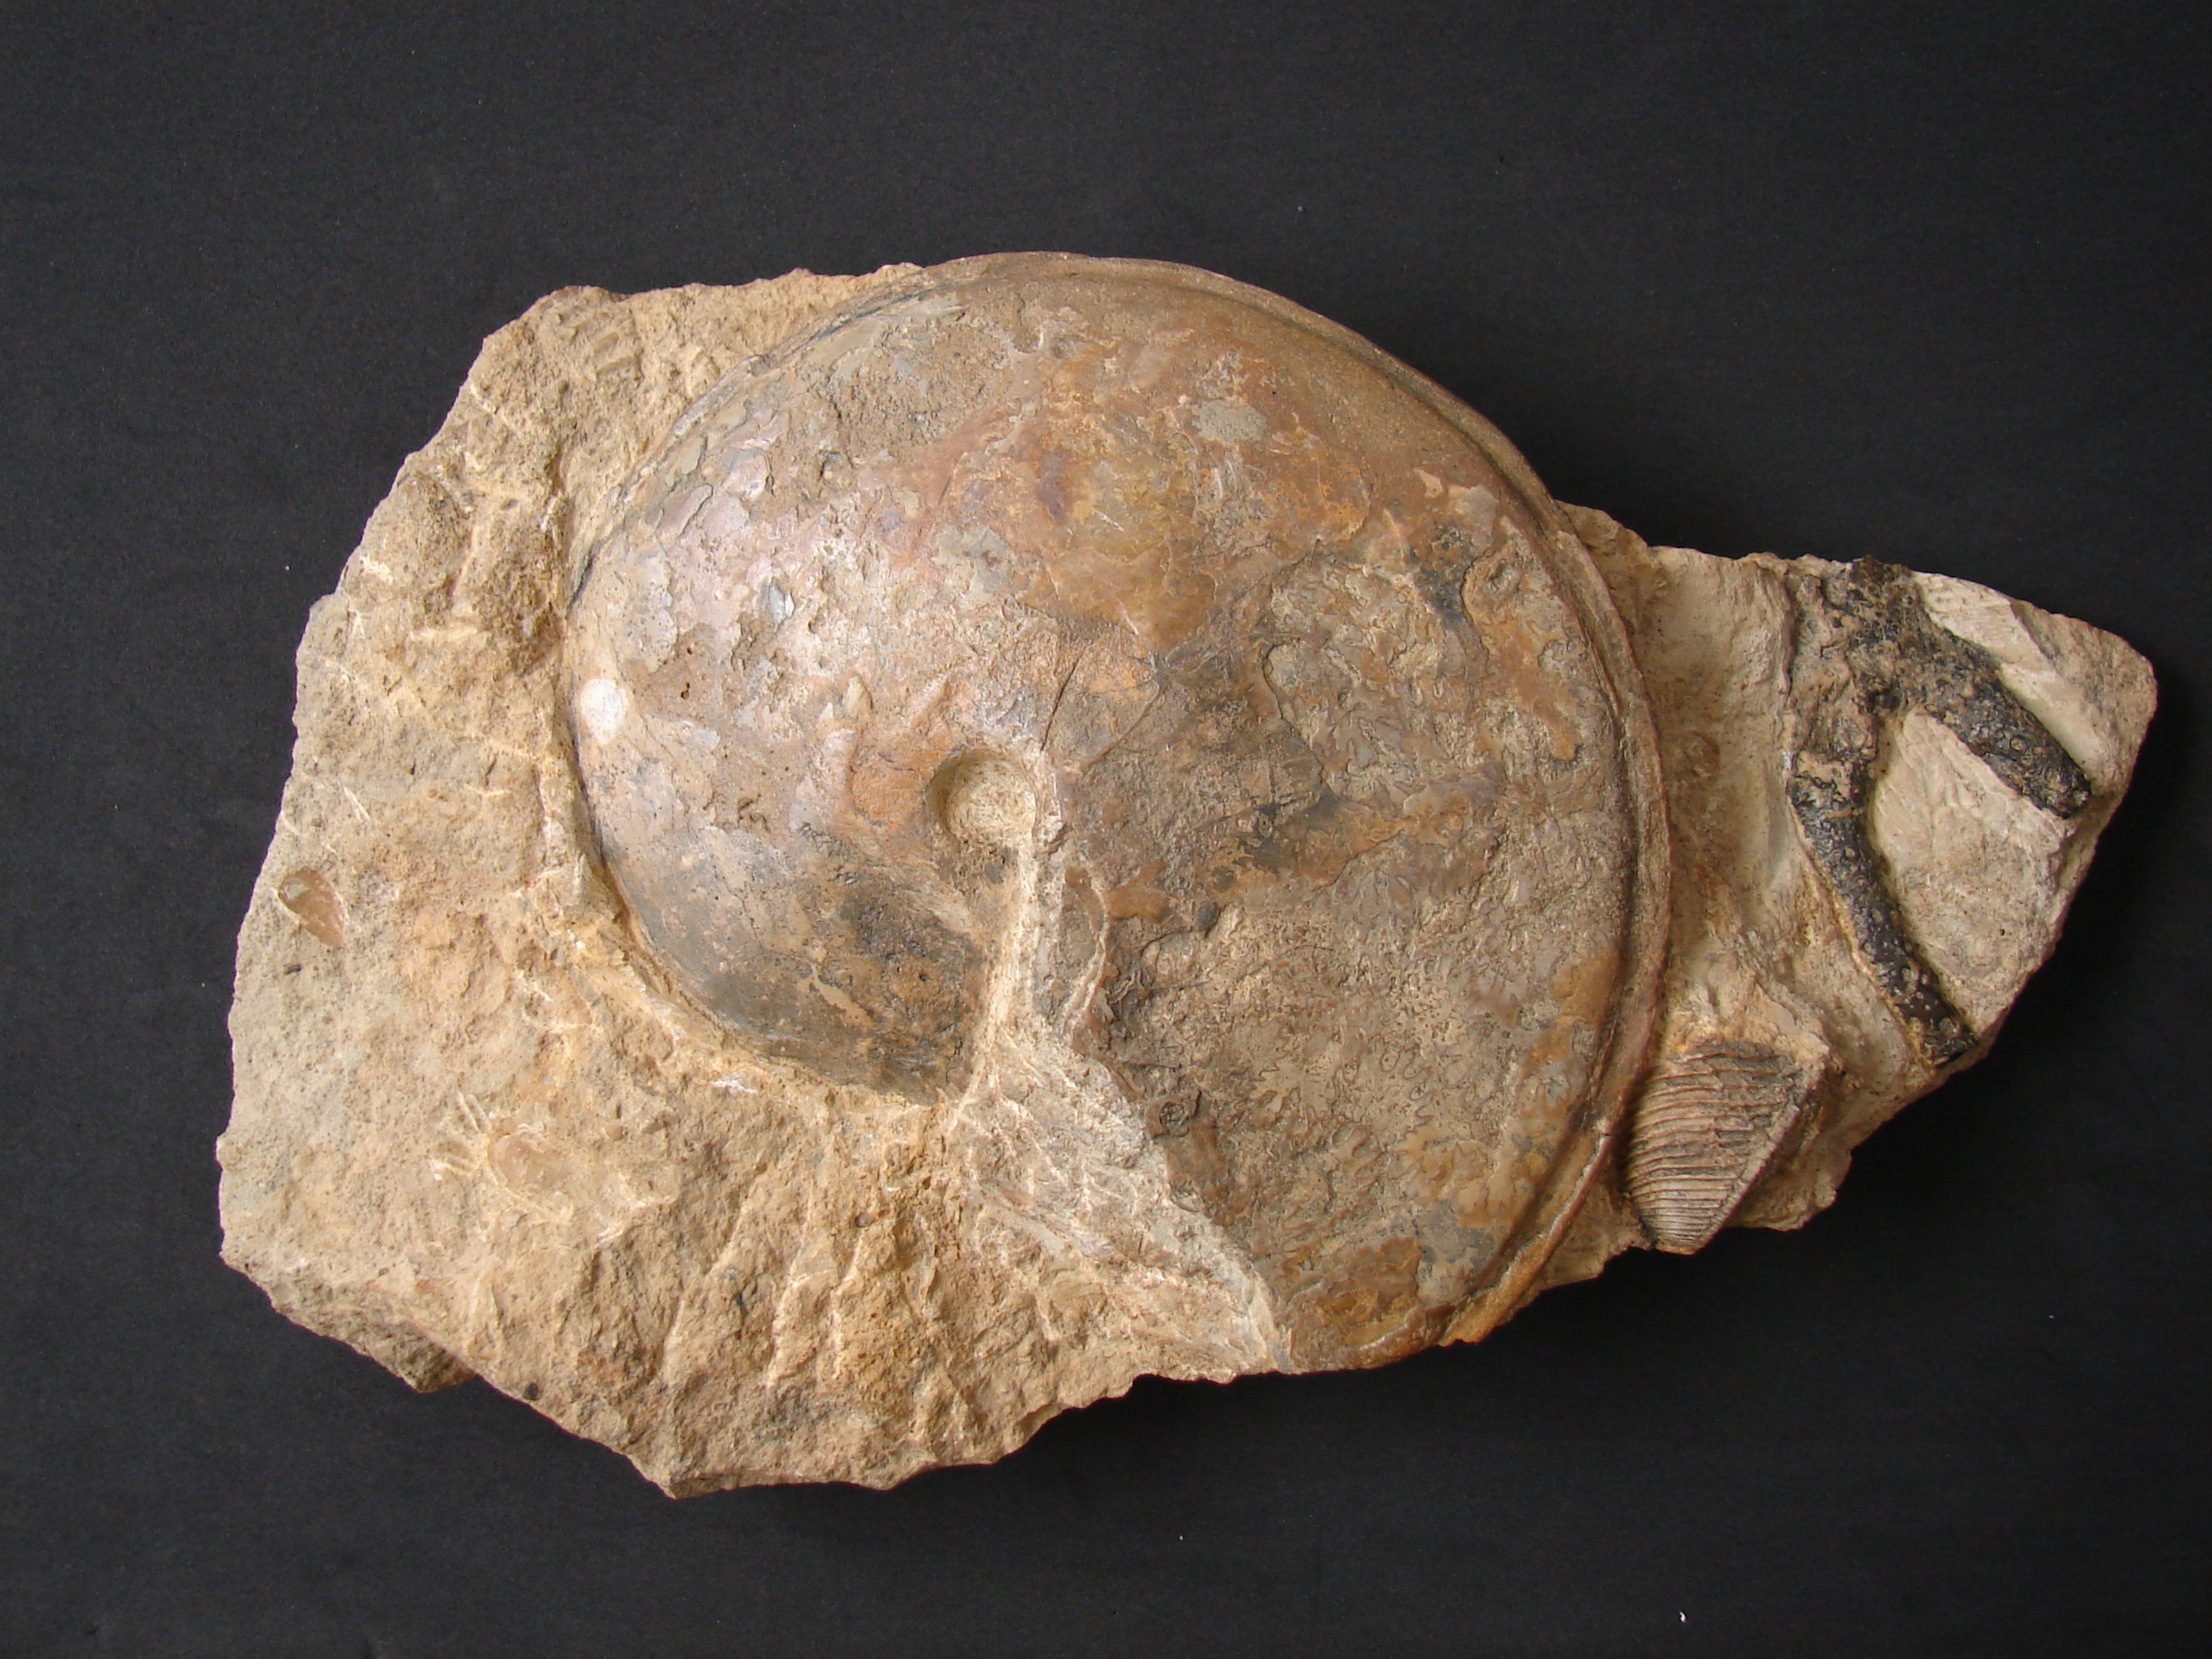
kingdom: Animalia
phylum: Mollusca
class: Cephalopoda
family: Graphoceratidae
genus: Hyperlioceras
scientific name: Hyperlioceras
